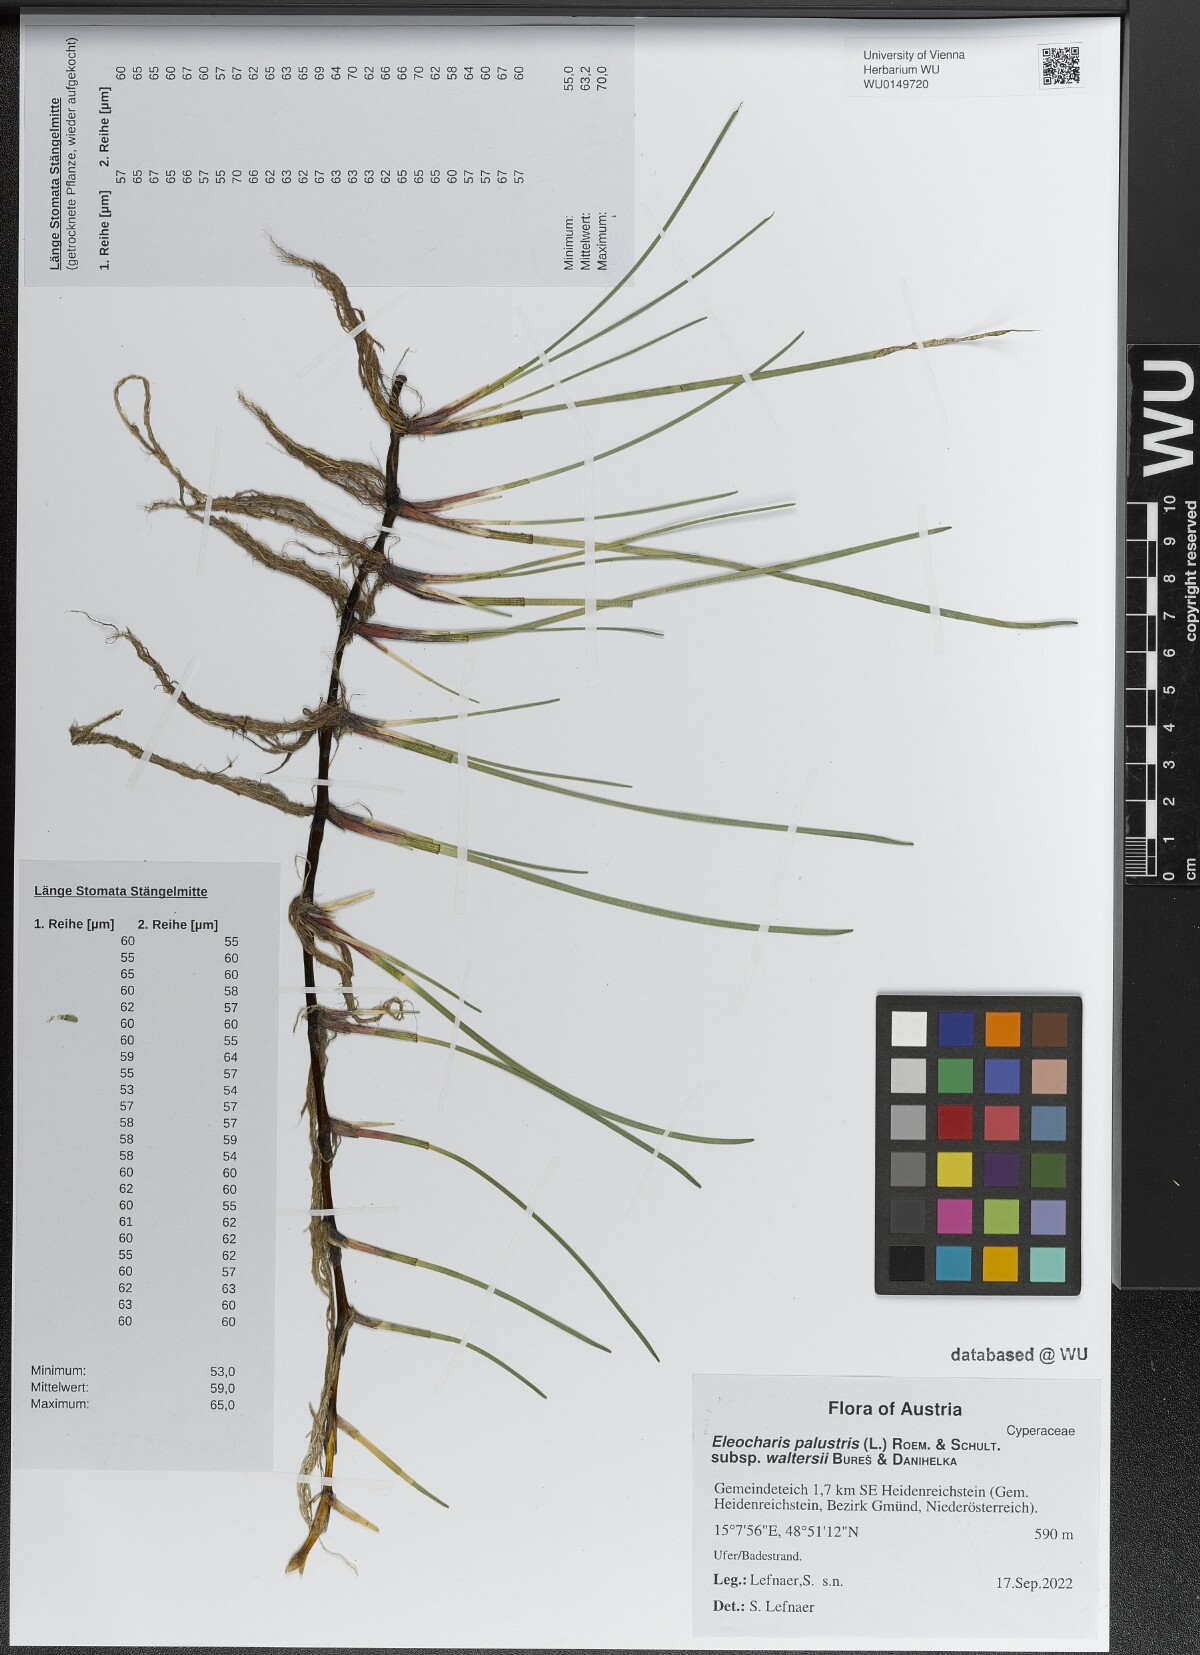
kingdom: Plantae
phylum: Tracheophyta
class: Liliopsida
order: Poales
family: Cyperaceae
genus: Eleocharis
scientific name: Eleocharis palustris
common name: Common spike-rush
